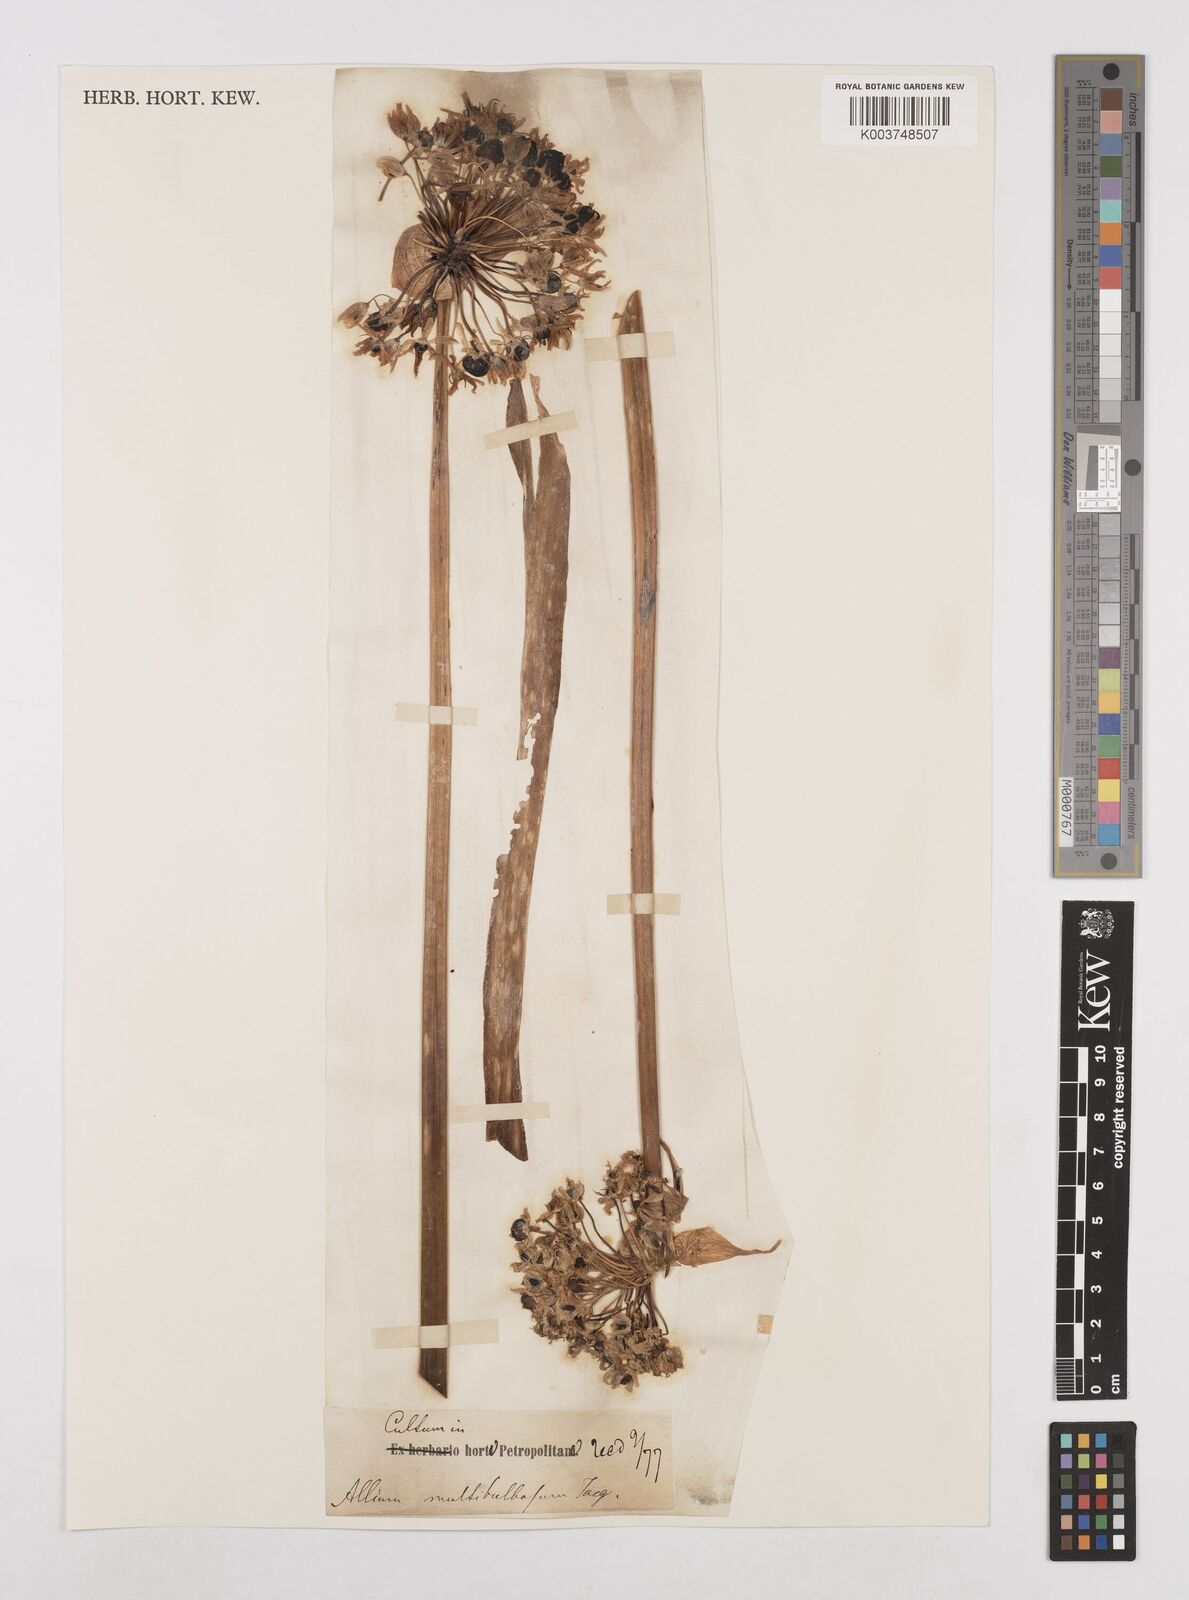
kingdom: Plantae
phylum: Tracheophyta
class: Liliopsida
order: Asparagales
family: Amaryllidaceae
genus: Allium
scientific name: Allium multibulbosum
